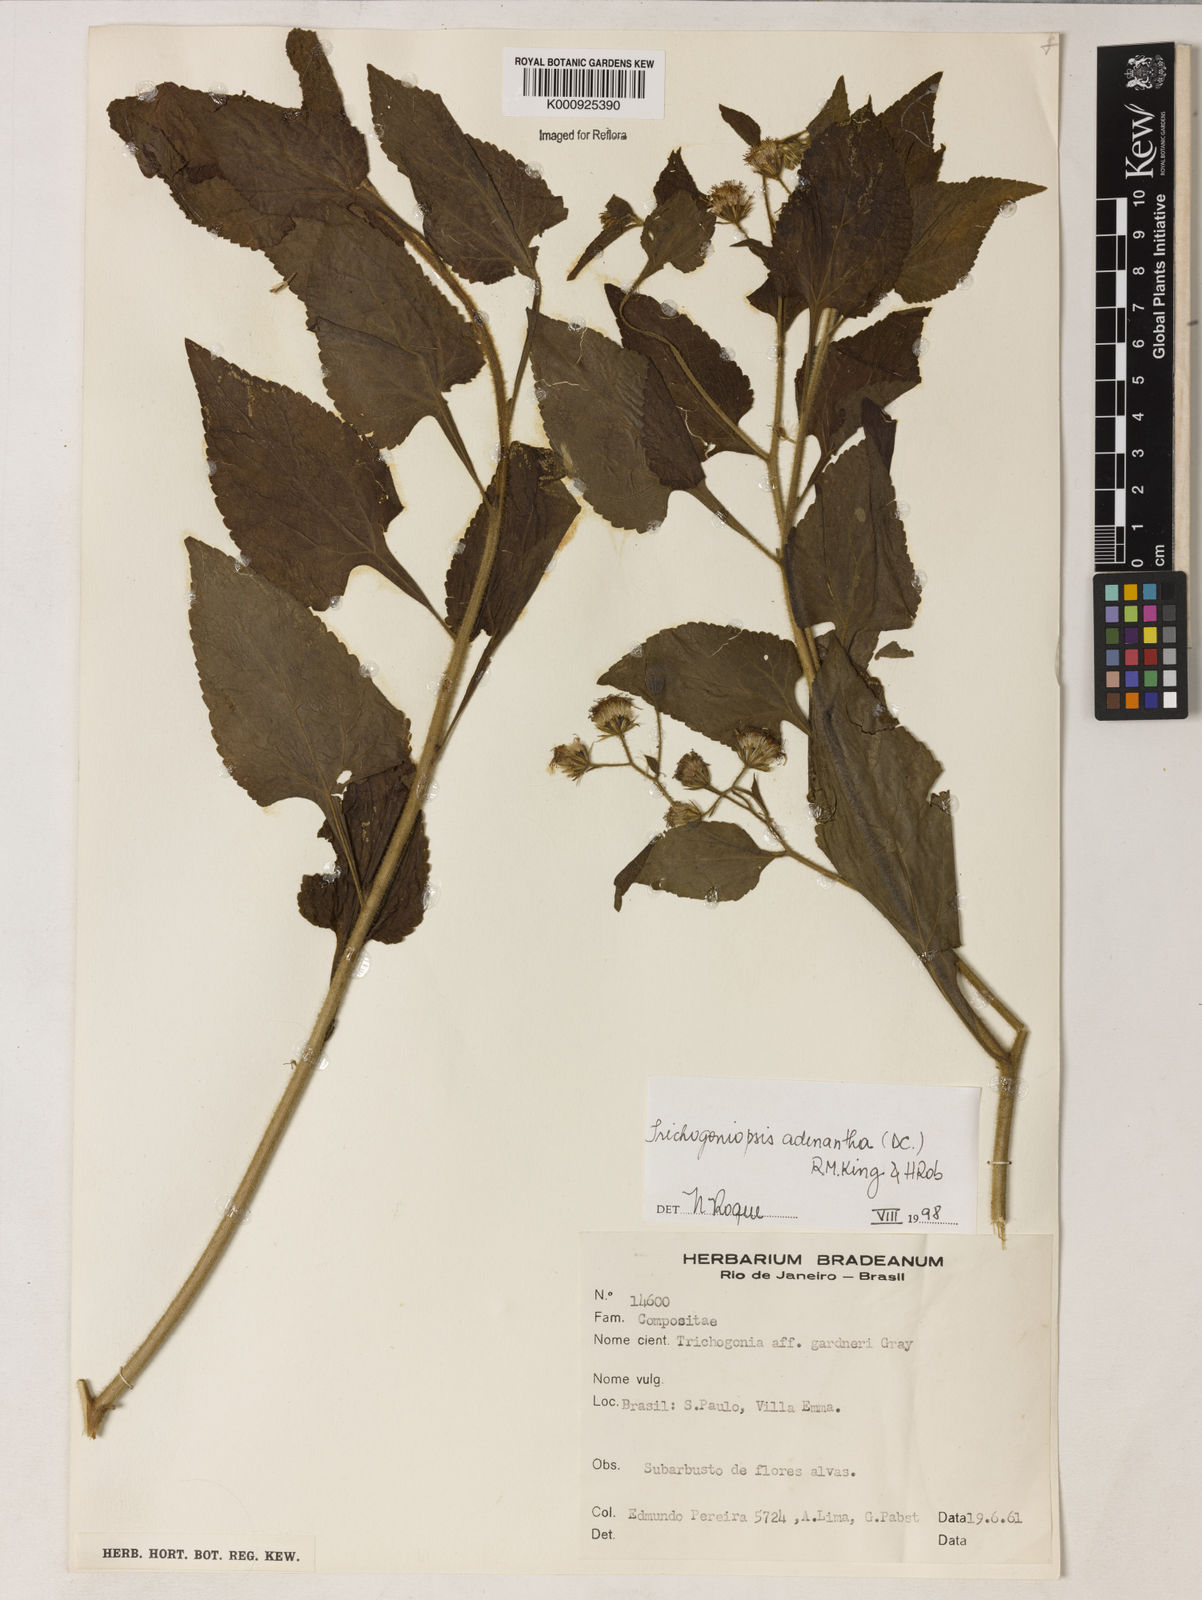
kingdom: Plantae
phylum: Tracheophyta
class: Magnoliopsida
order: Asterales
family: Asteraceae
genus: Trichogoniopsis
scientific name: Trichogoniopsis adenantha
